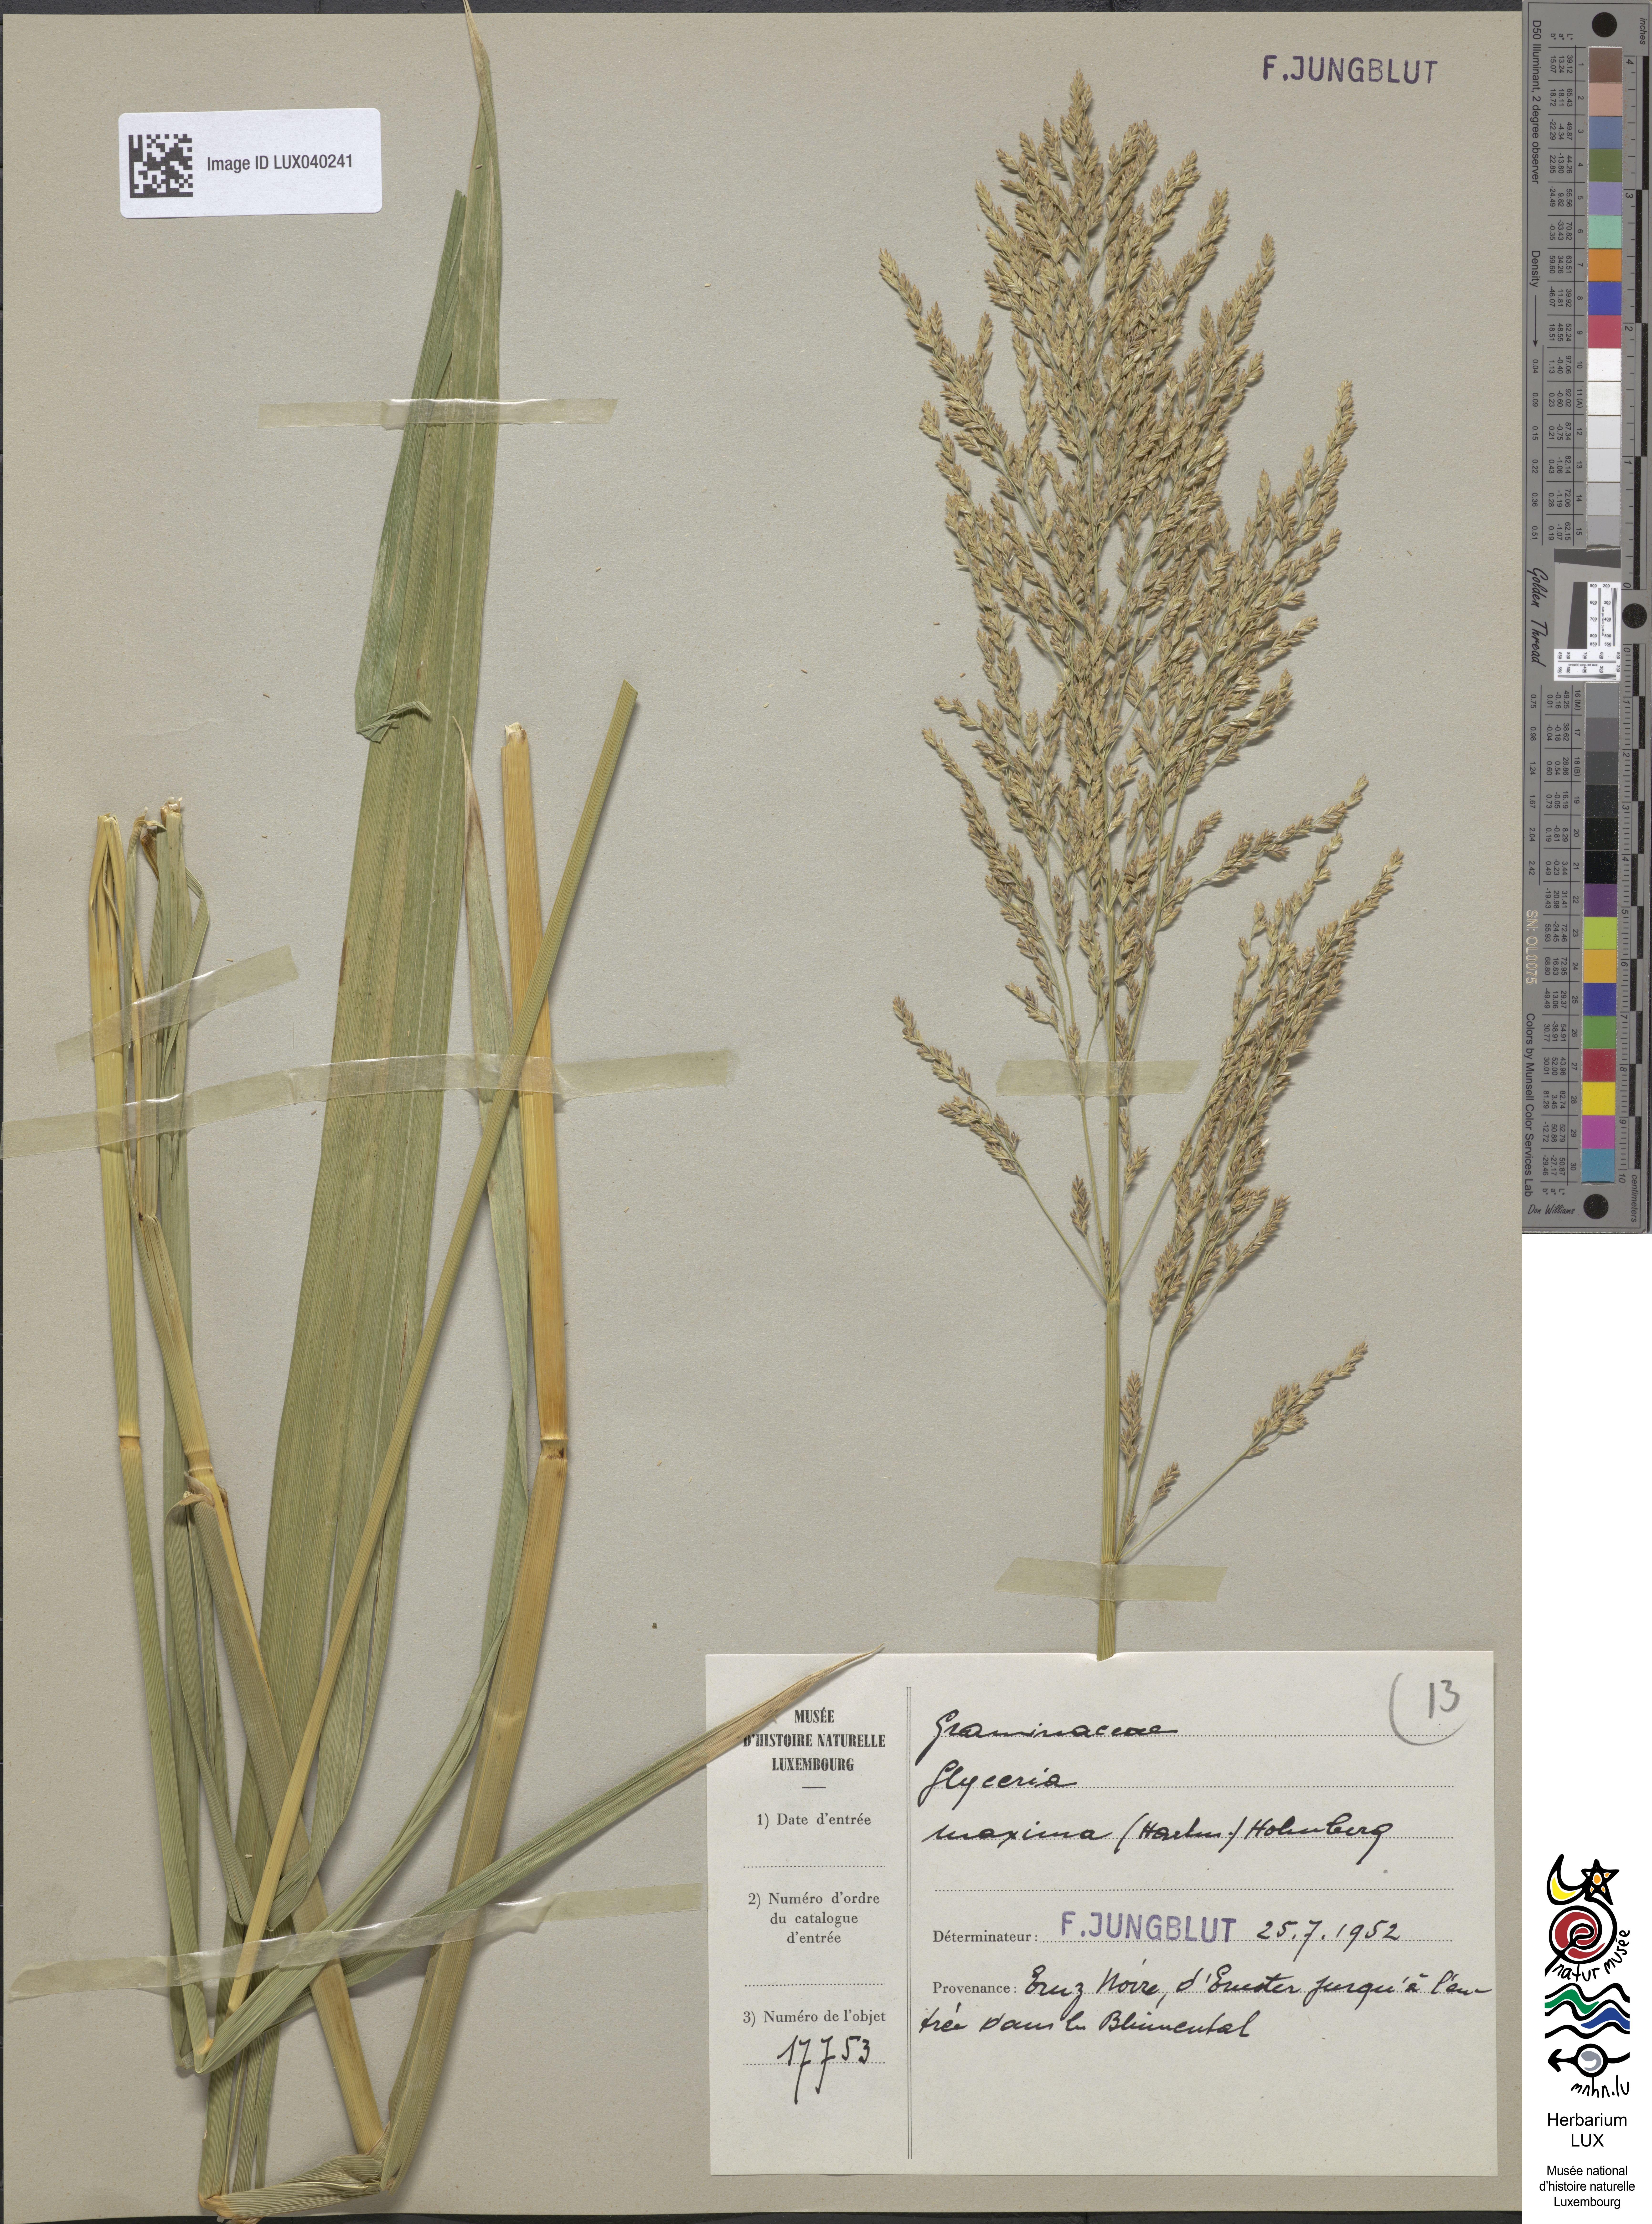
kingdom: Plantae
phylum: Tracheophyta
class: Liliopsida
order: Poales
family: Poaceae
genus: Glyceria
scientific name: Glyceria maxima
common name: Reed mannagrass
